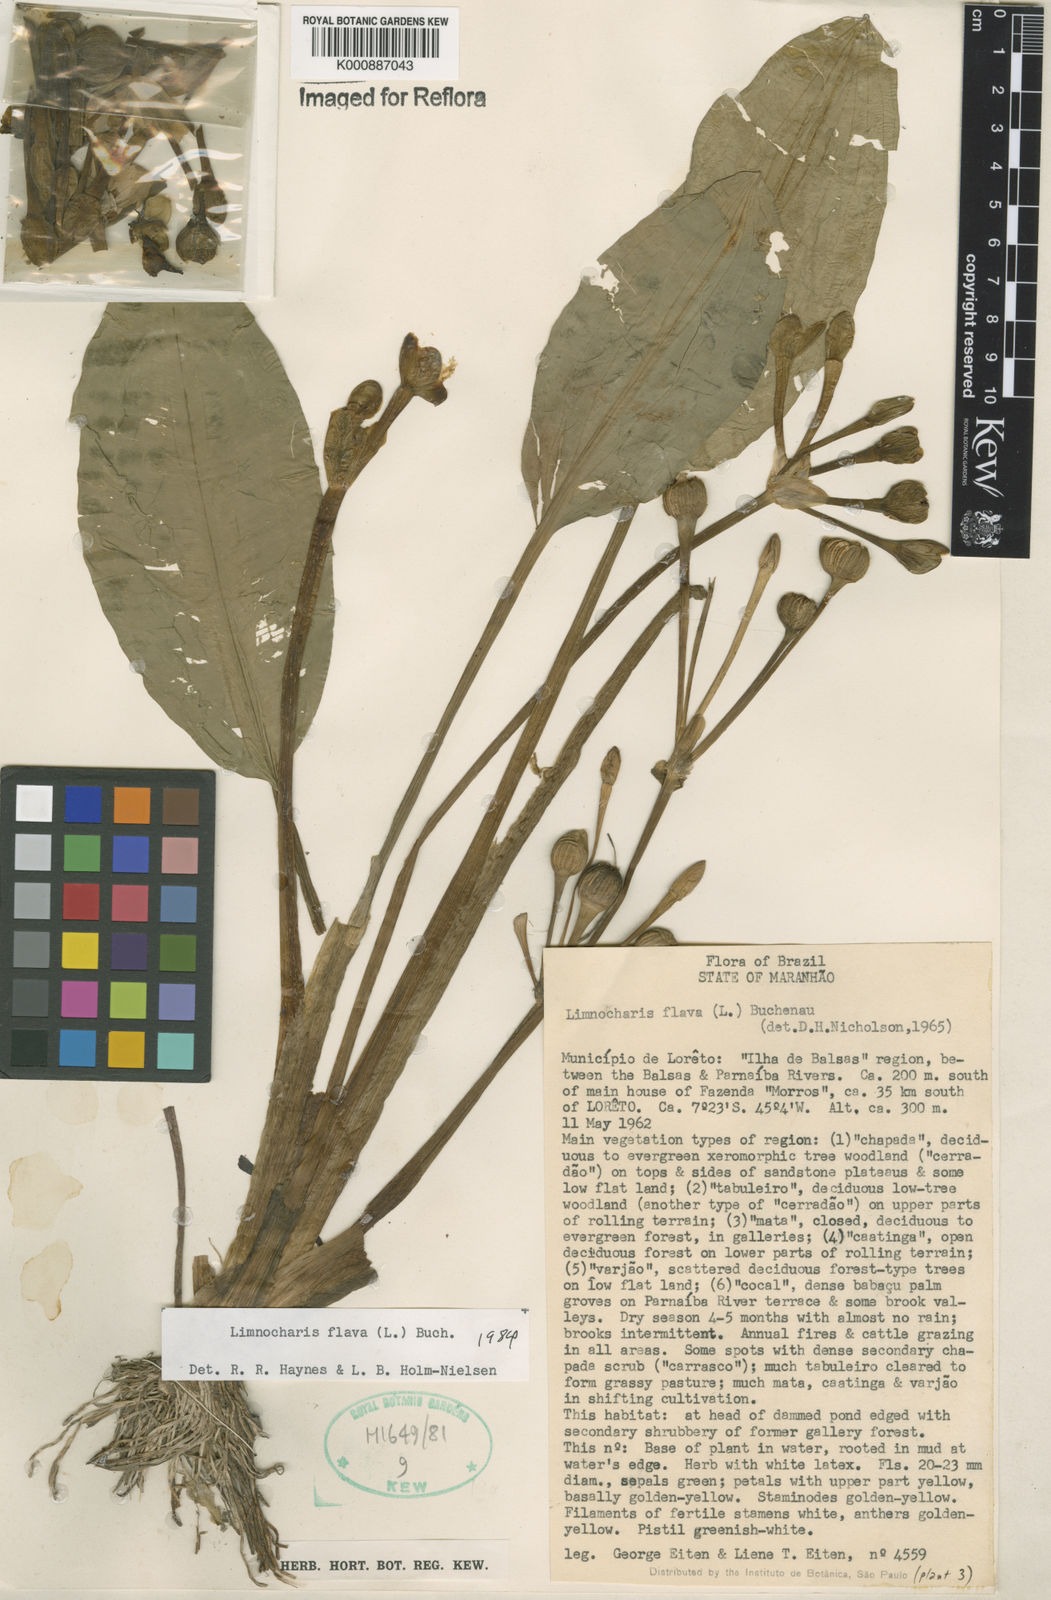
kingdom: Plantae
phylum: Tracheophyta
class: Liliopsida
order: Alismatales
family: Alismataceae
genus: Limnocharis
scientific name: Limnocharis flava
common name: Sawah-flower-rush
